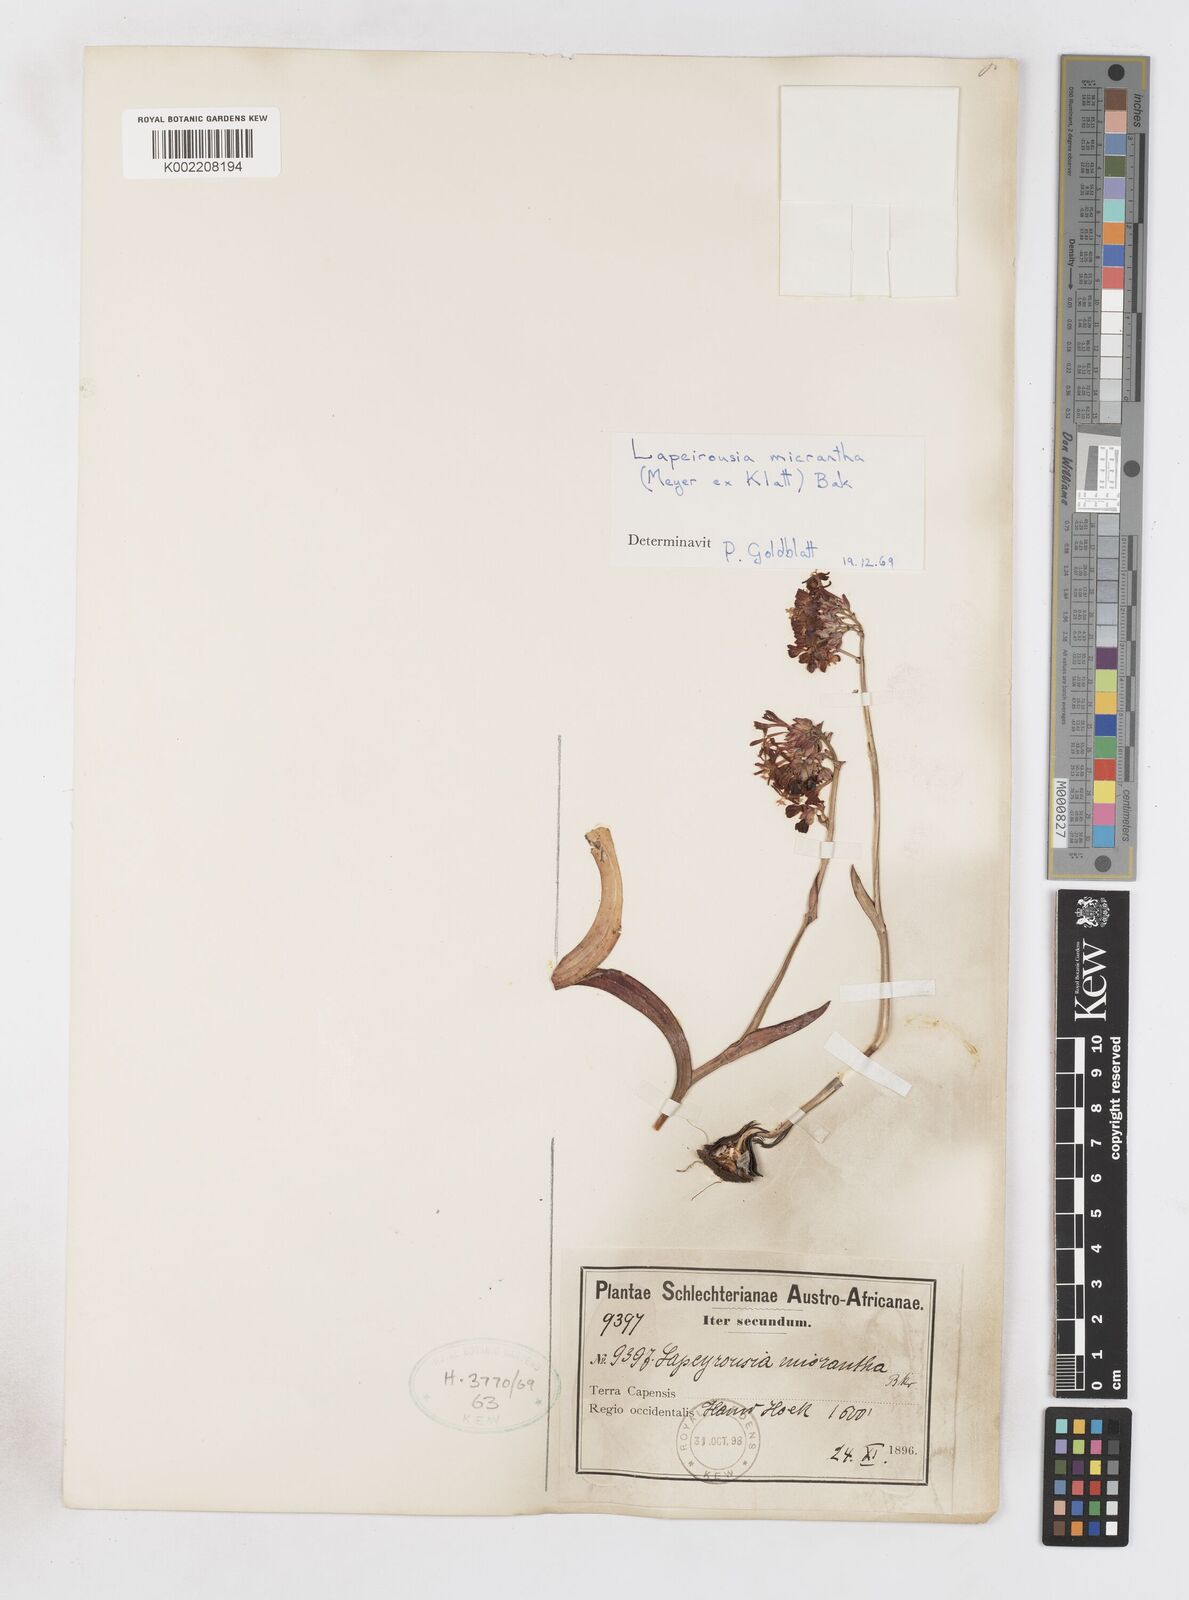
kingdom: Plantae
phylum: Tracheophyta
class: Liliopsida
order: Asparagales
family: Iridaceae
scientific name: Iridaceae
